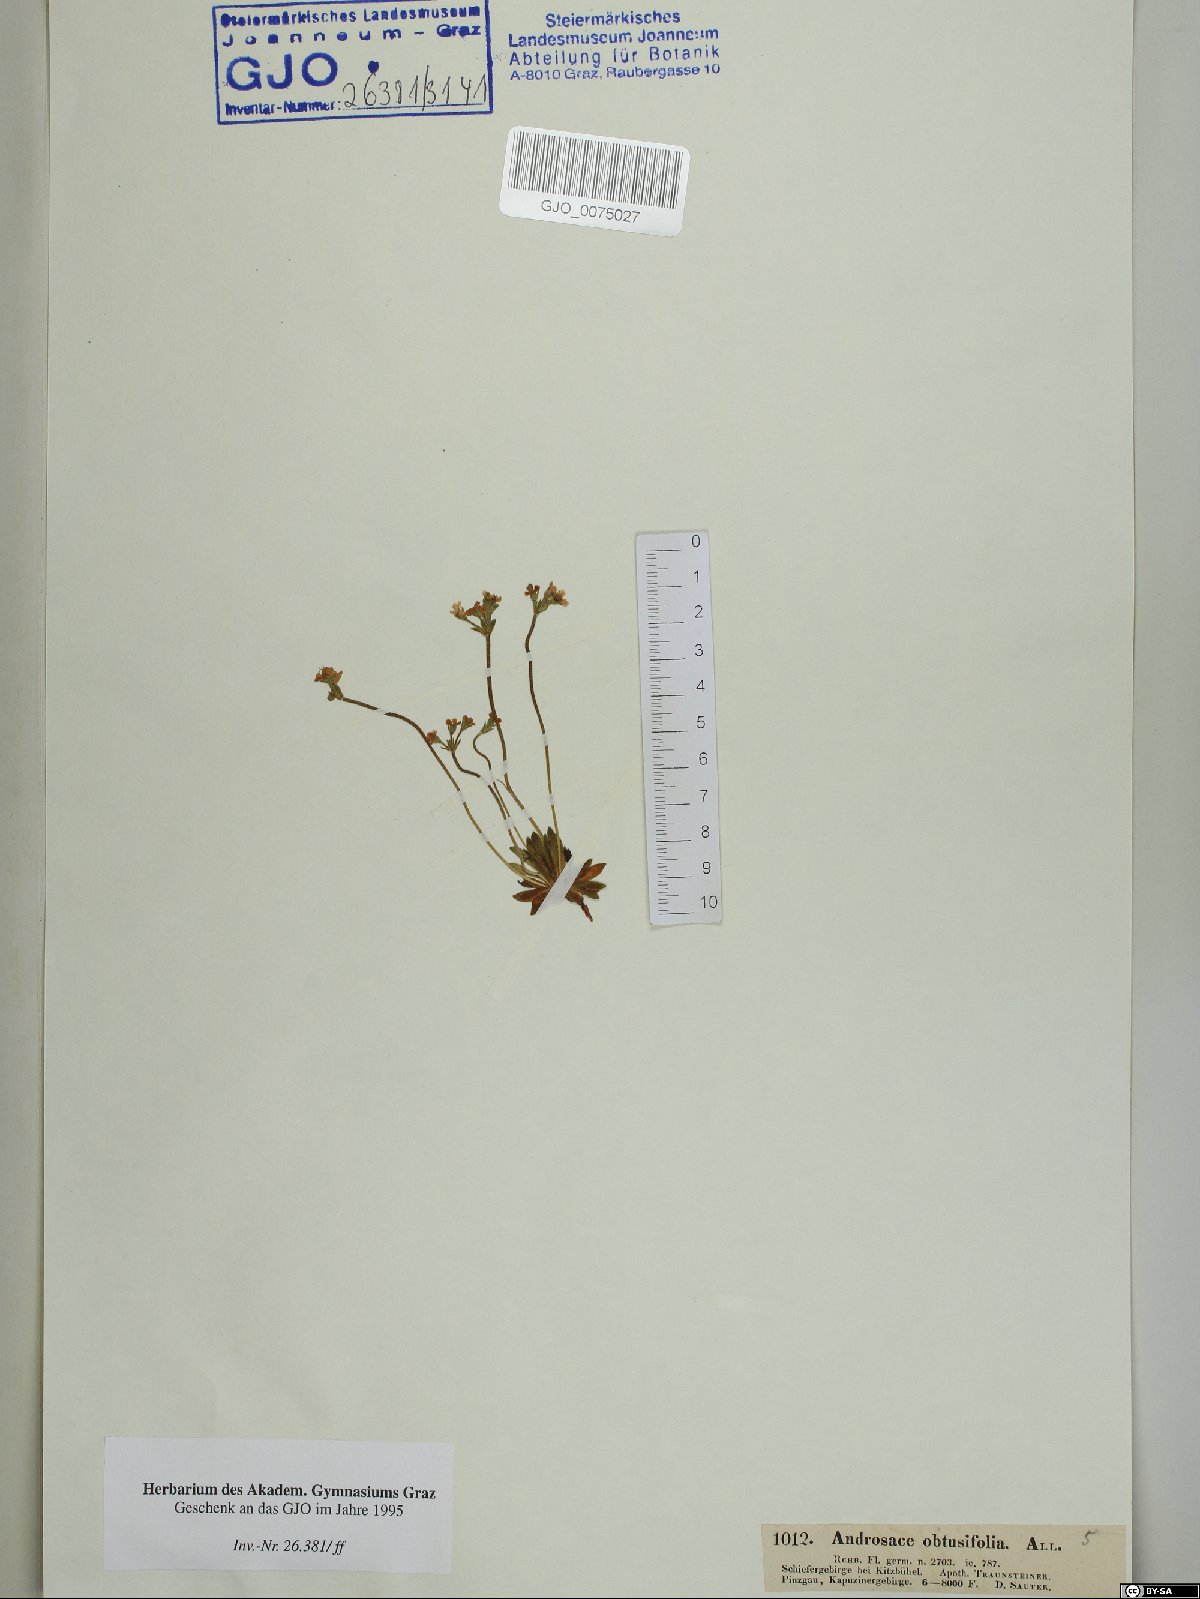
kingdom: Plantae
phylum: Tracheophyta
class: Magnoliopsida
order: Ericales
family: Primulaceae
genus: Androsace
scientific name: Androsace obtusifolia
